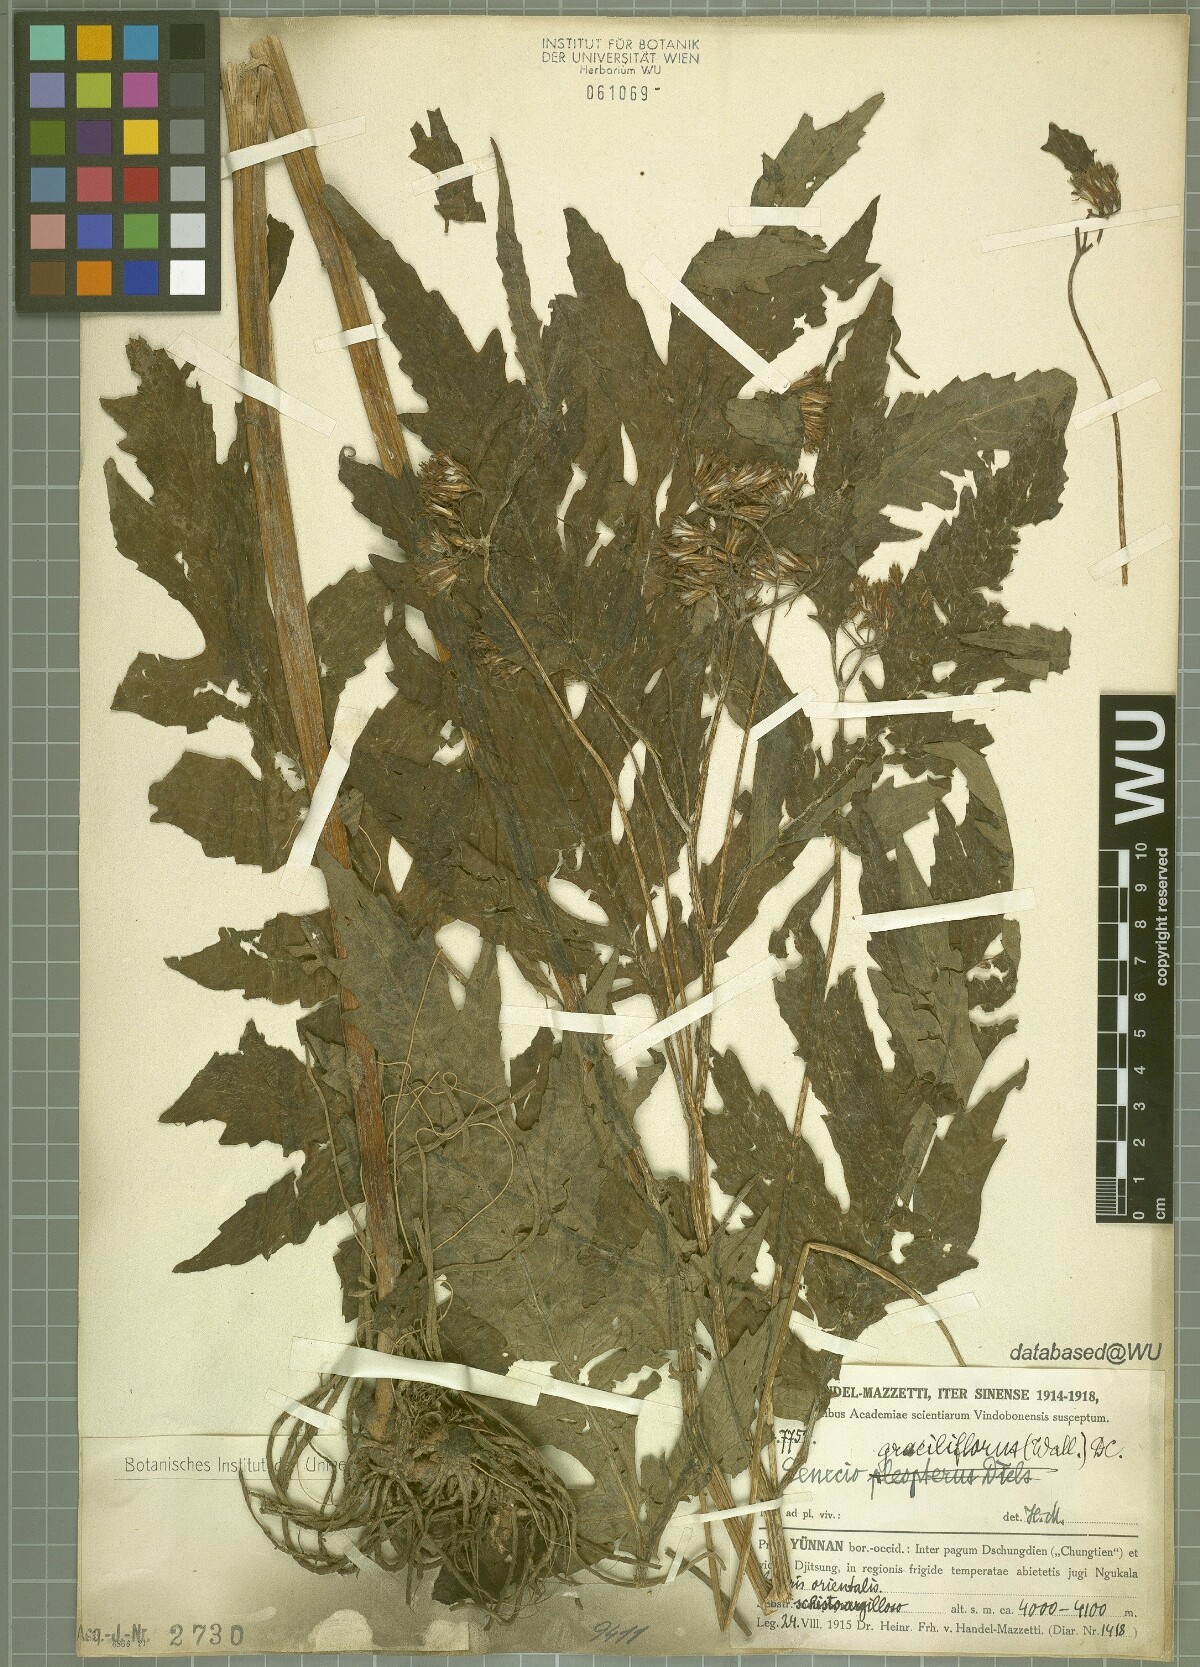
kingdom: Plantae
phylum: Tracheophyta
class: Magnoliopsida
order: Asterales
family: Asteraceae
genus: Jacobaea
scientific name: Jacobaea graciliflora
